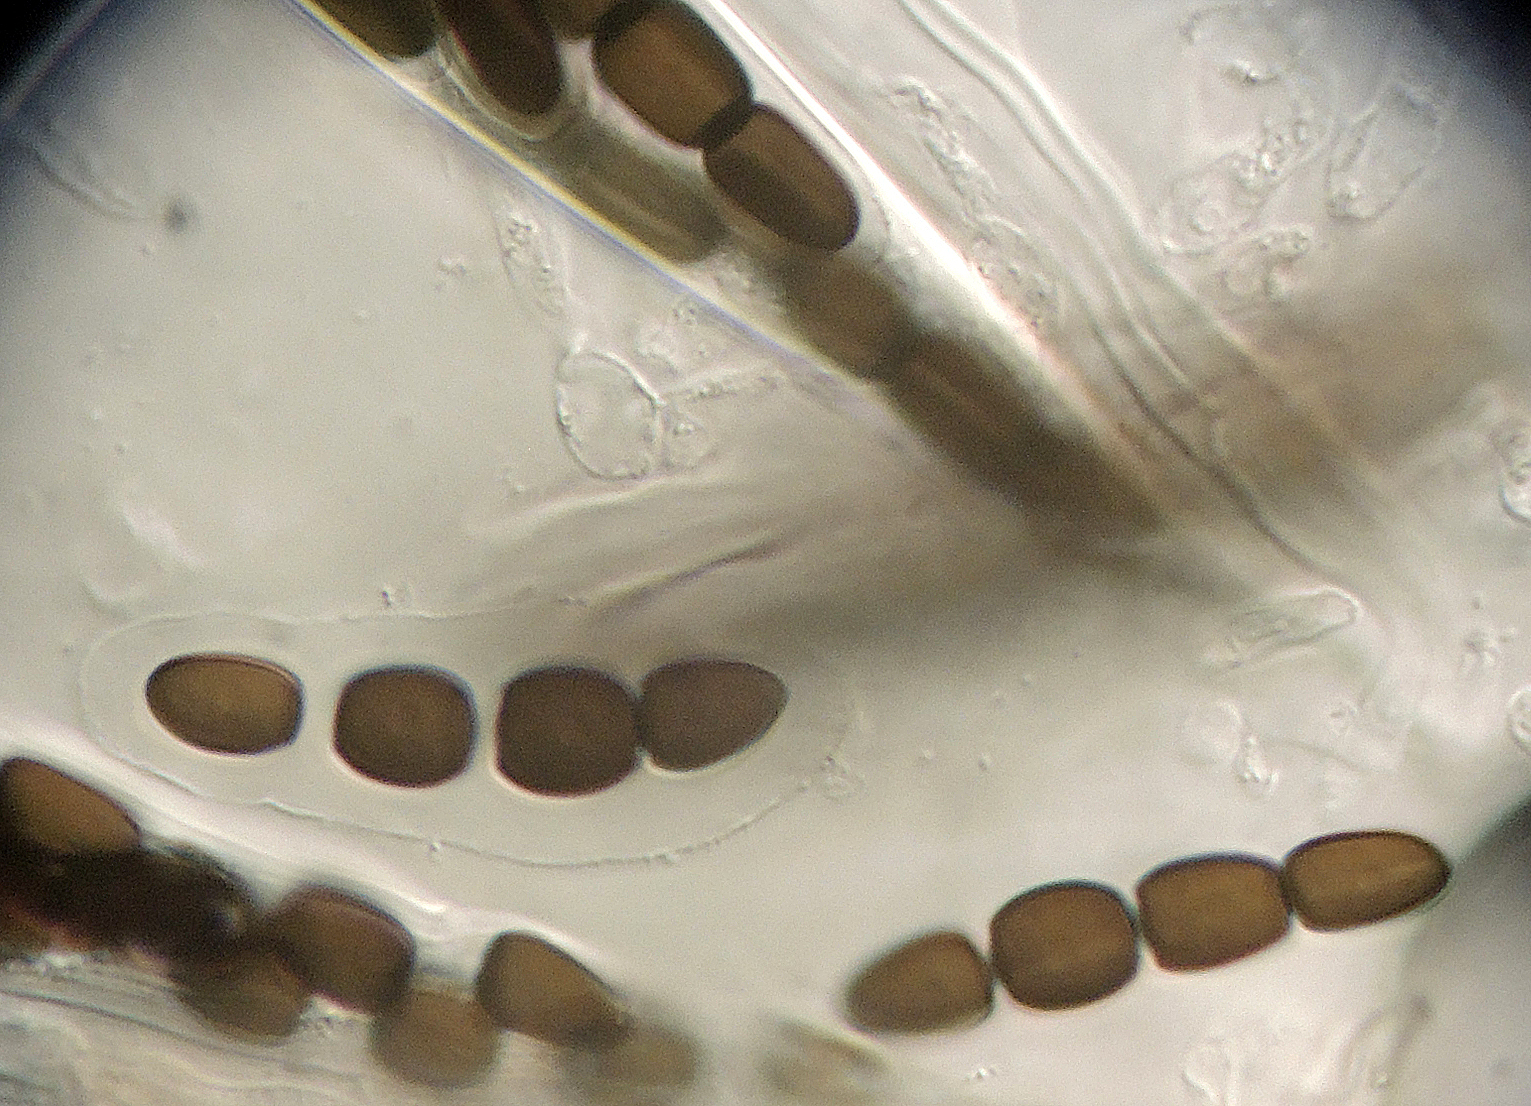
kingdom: Fungi
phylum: Ascomycota
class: Dothideomycetes
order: Pleosporales
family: Sporormiaceae
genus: Preussia
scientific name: Preussia dubia
